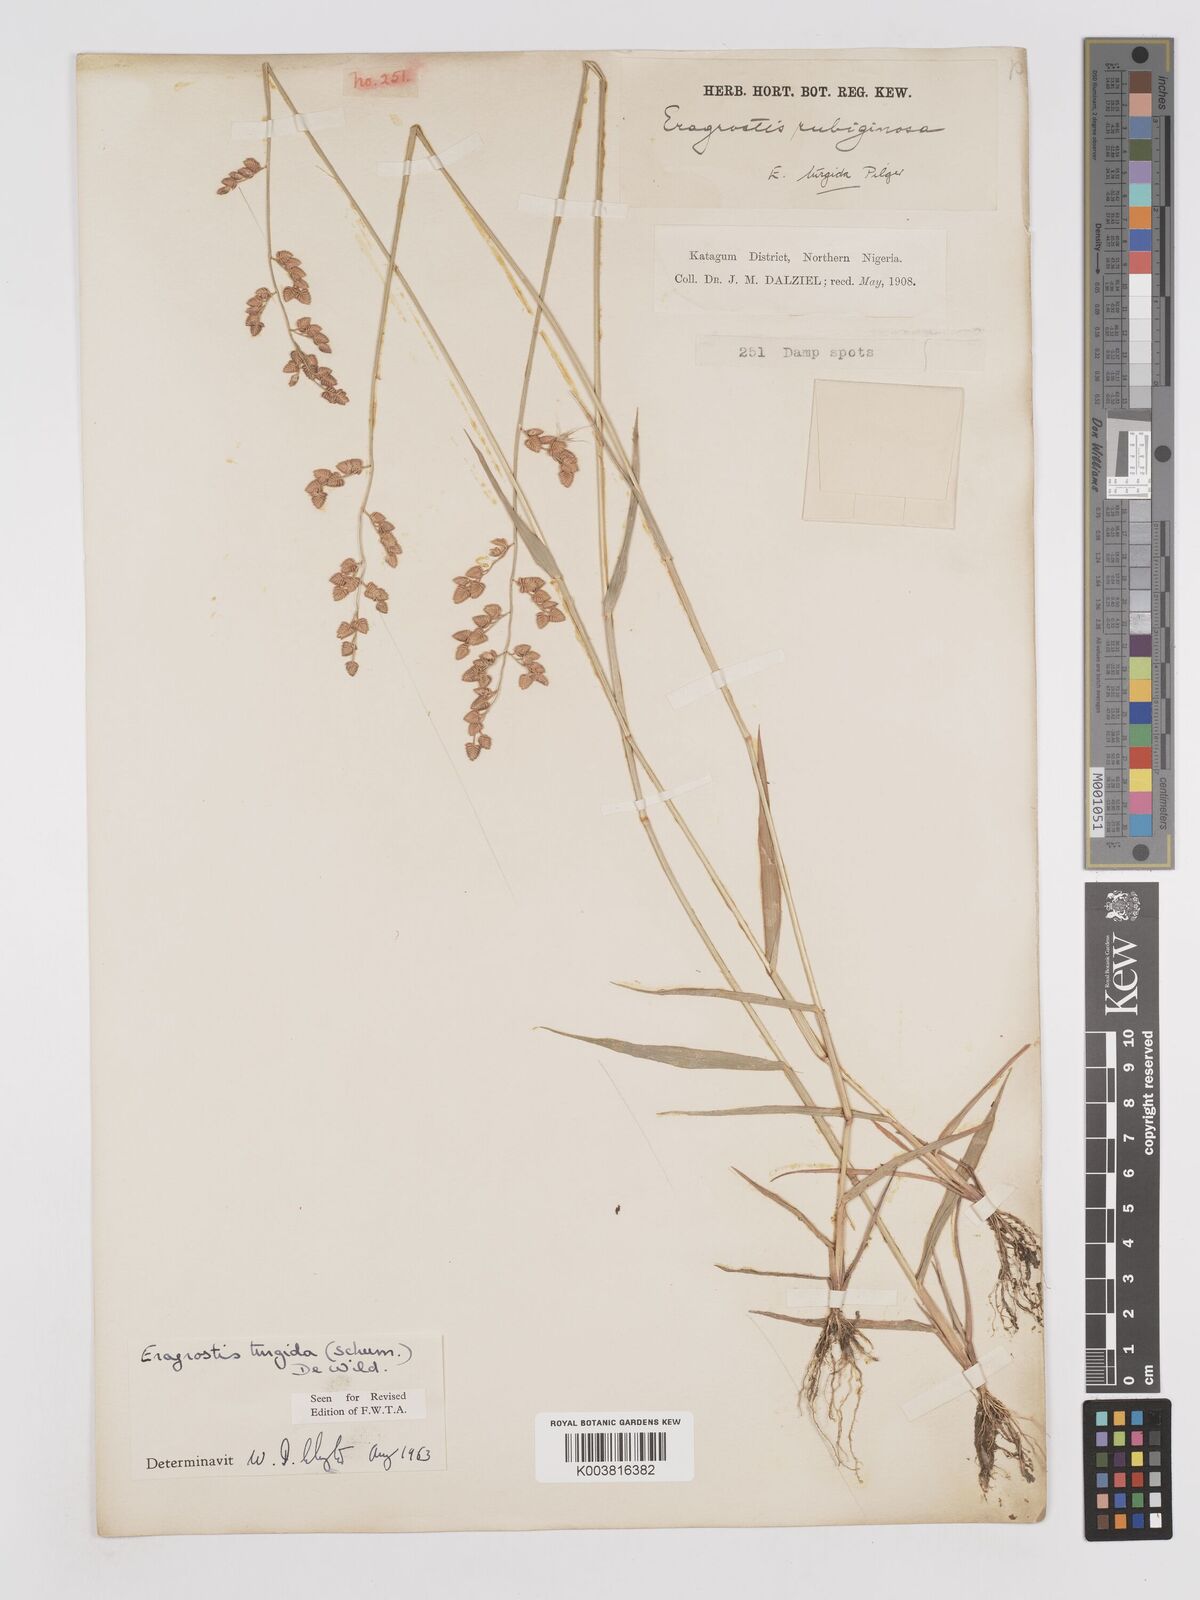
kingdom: Plantae
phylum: Tracheophyta
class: Liliopsida
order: Poales
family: Poaceae
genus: Eragrostis
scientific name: Eragrostis turgida
